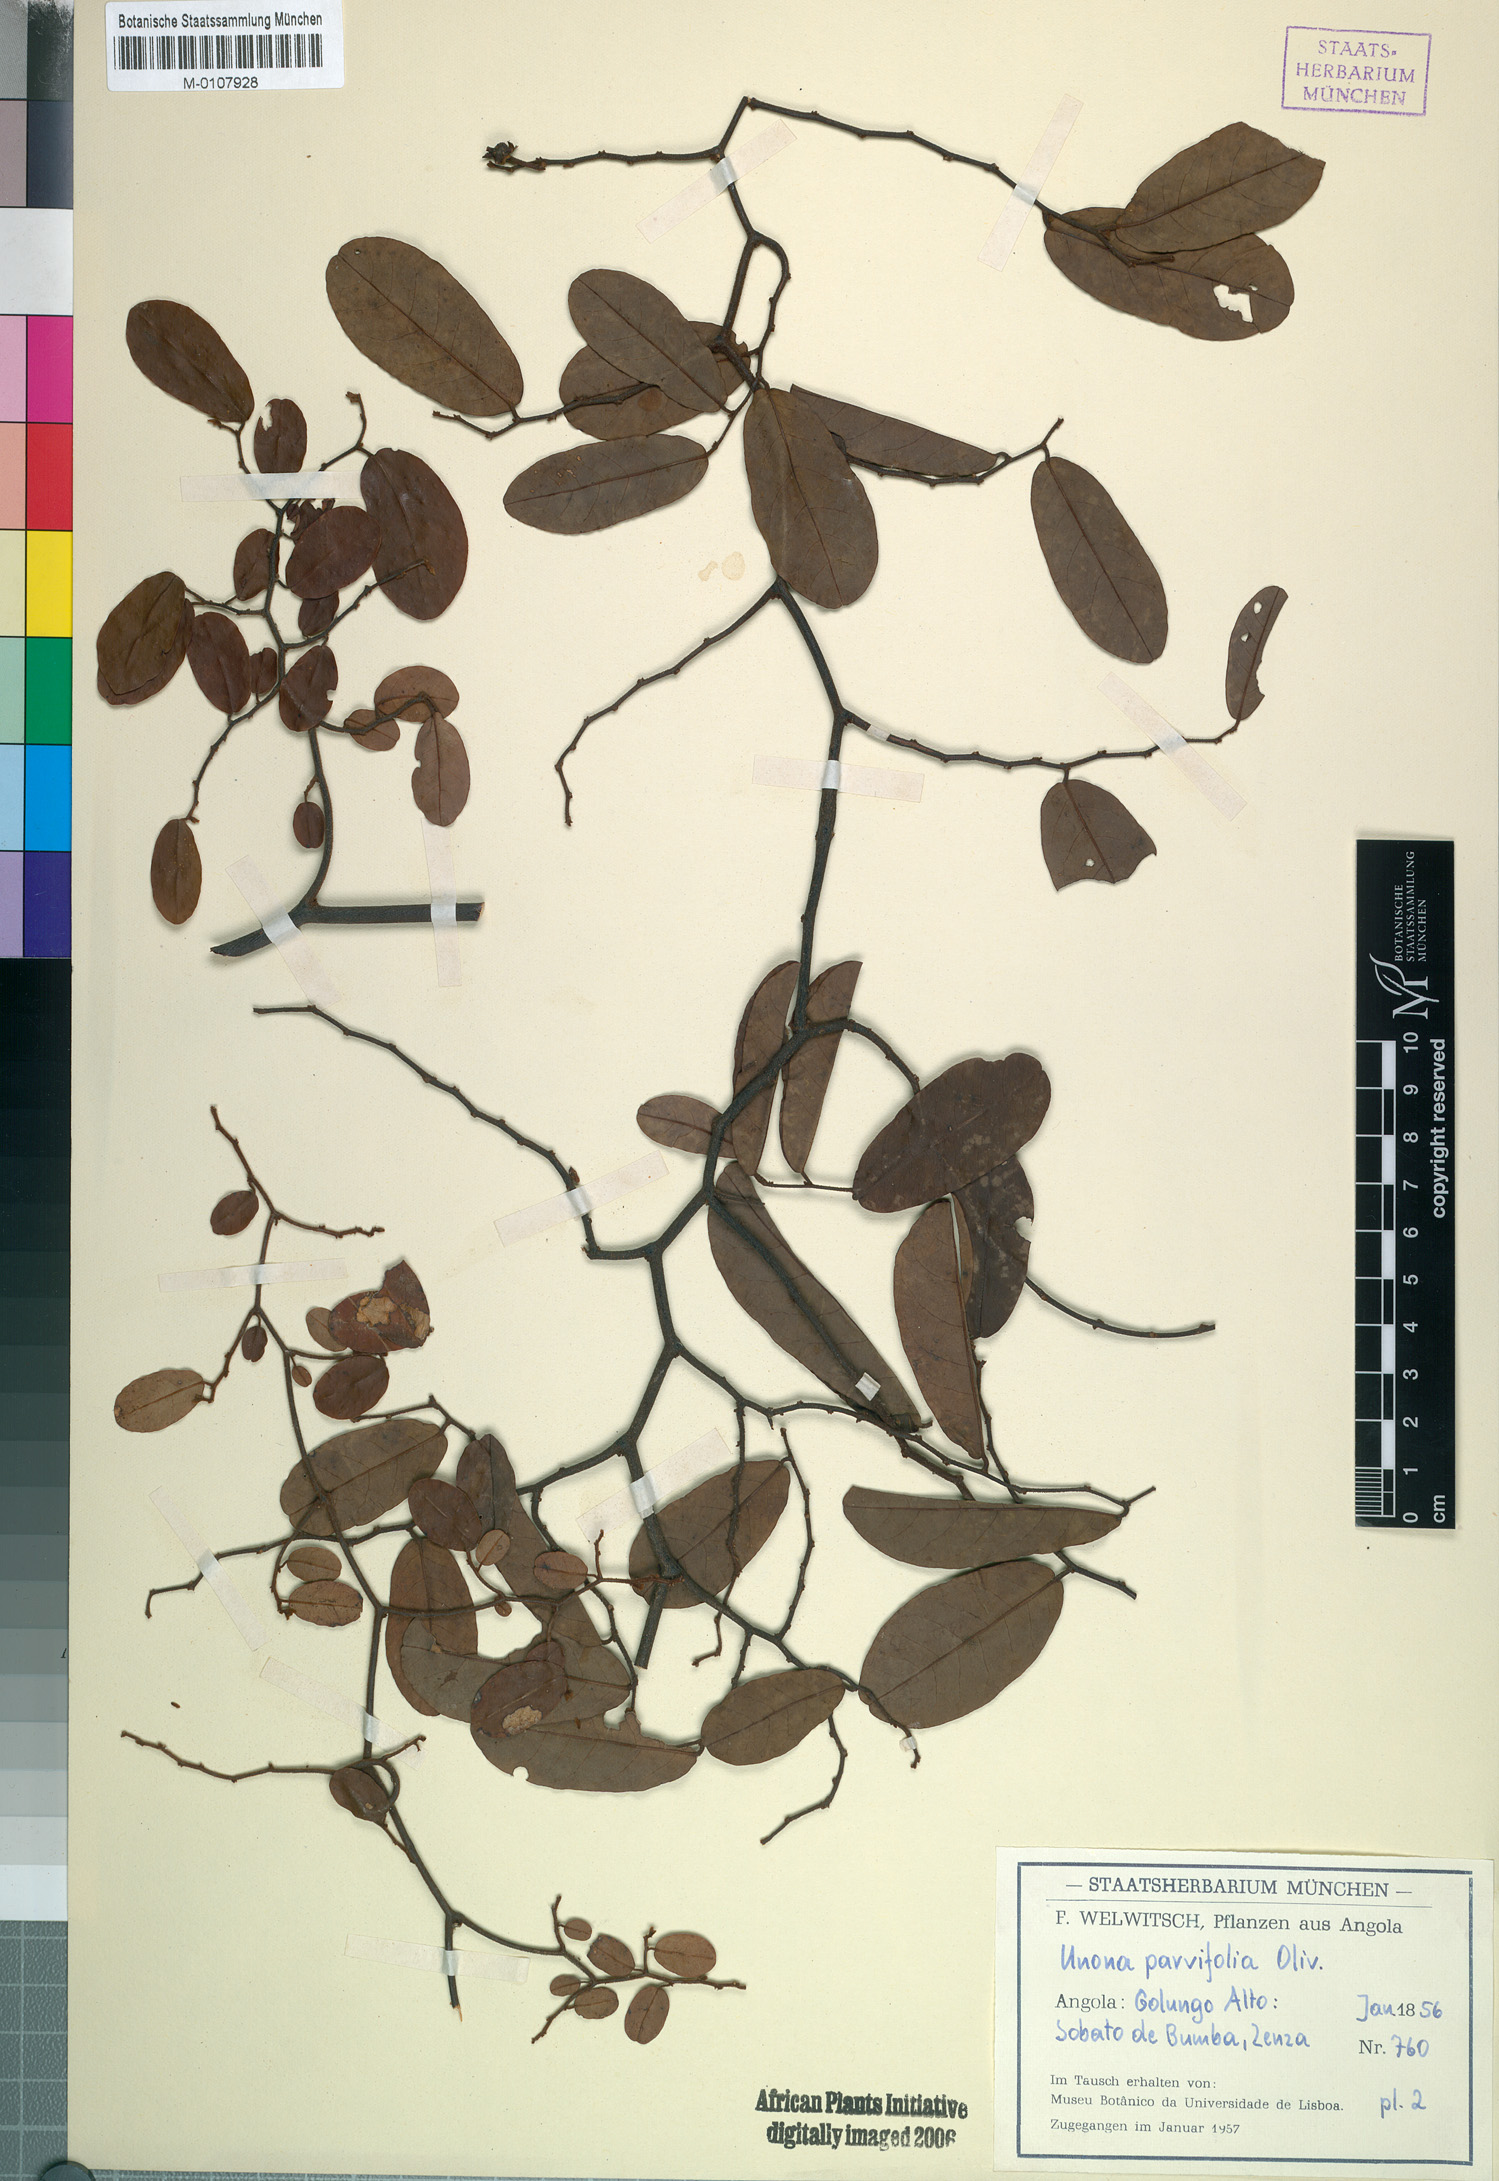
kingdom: Plantae
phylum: Tracheophyta
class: Magnoliopsida
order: Magnoliales
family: Annonaceae
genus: Monanthotaxis
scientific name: Monanthotaxis parvifolia
